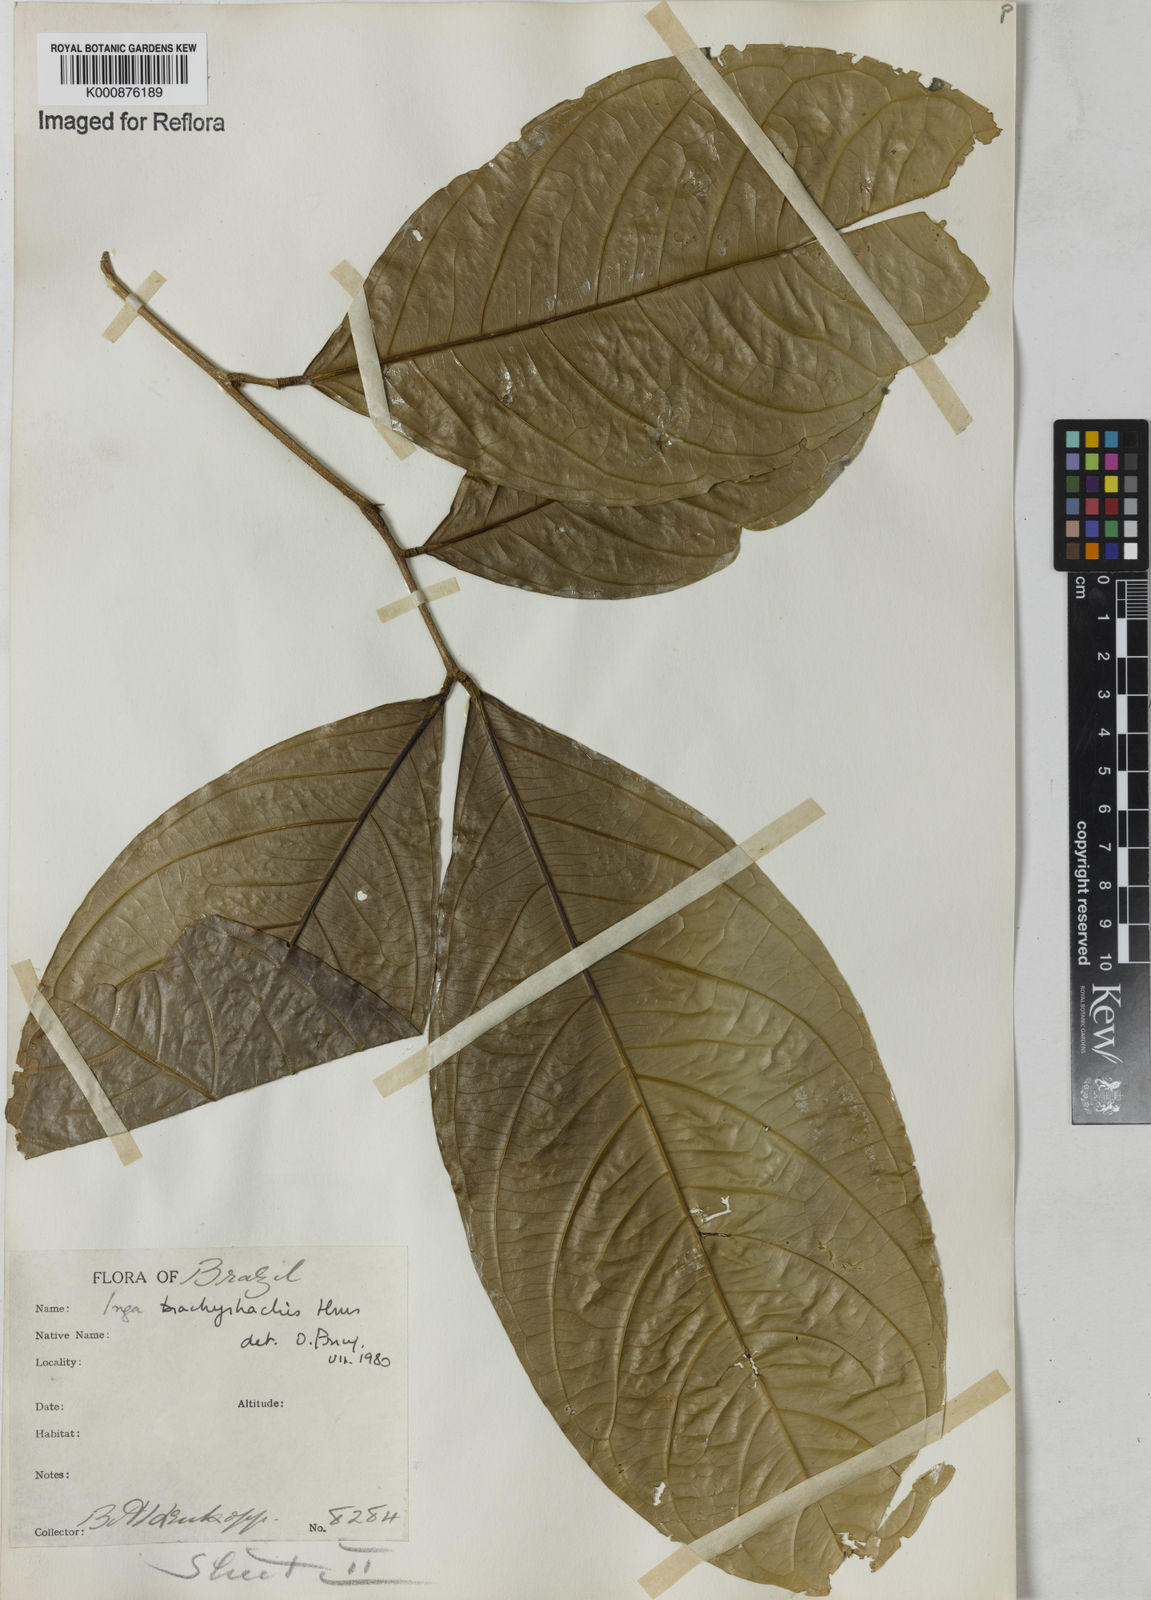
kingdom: Plantae
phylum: Tracheophyta
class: Magnoliopsida
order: Fabales
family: Fabaceae
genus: Inga
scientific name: Inga brachyrhachis
